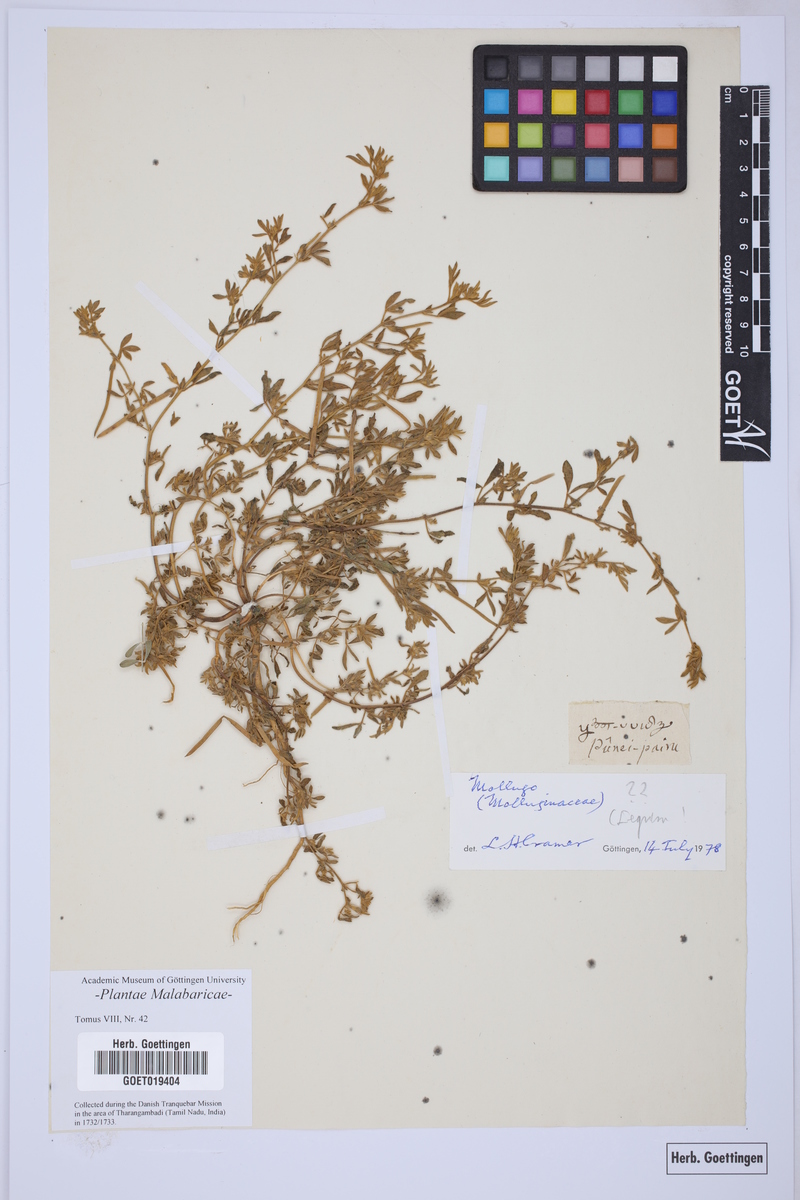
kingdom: Plantae
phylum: Tracheophyta
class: Magnoliopsida
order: Caryophyllales
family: Molluginaceae
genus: Mollugo
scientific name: Mollugo
